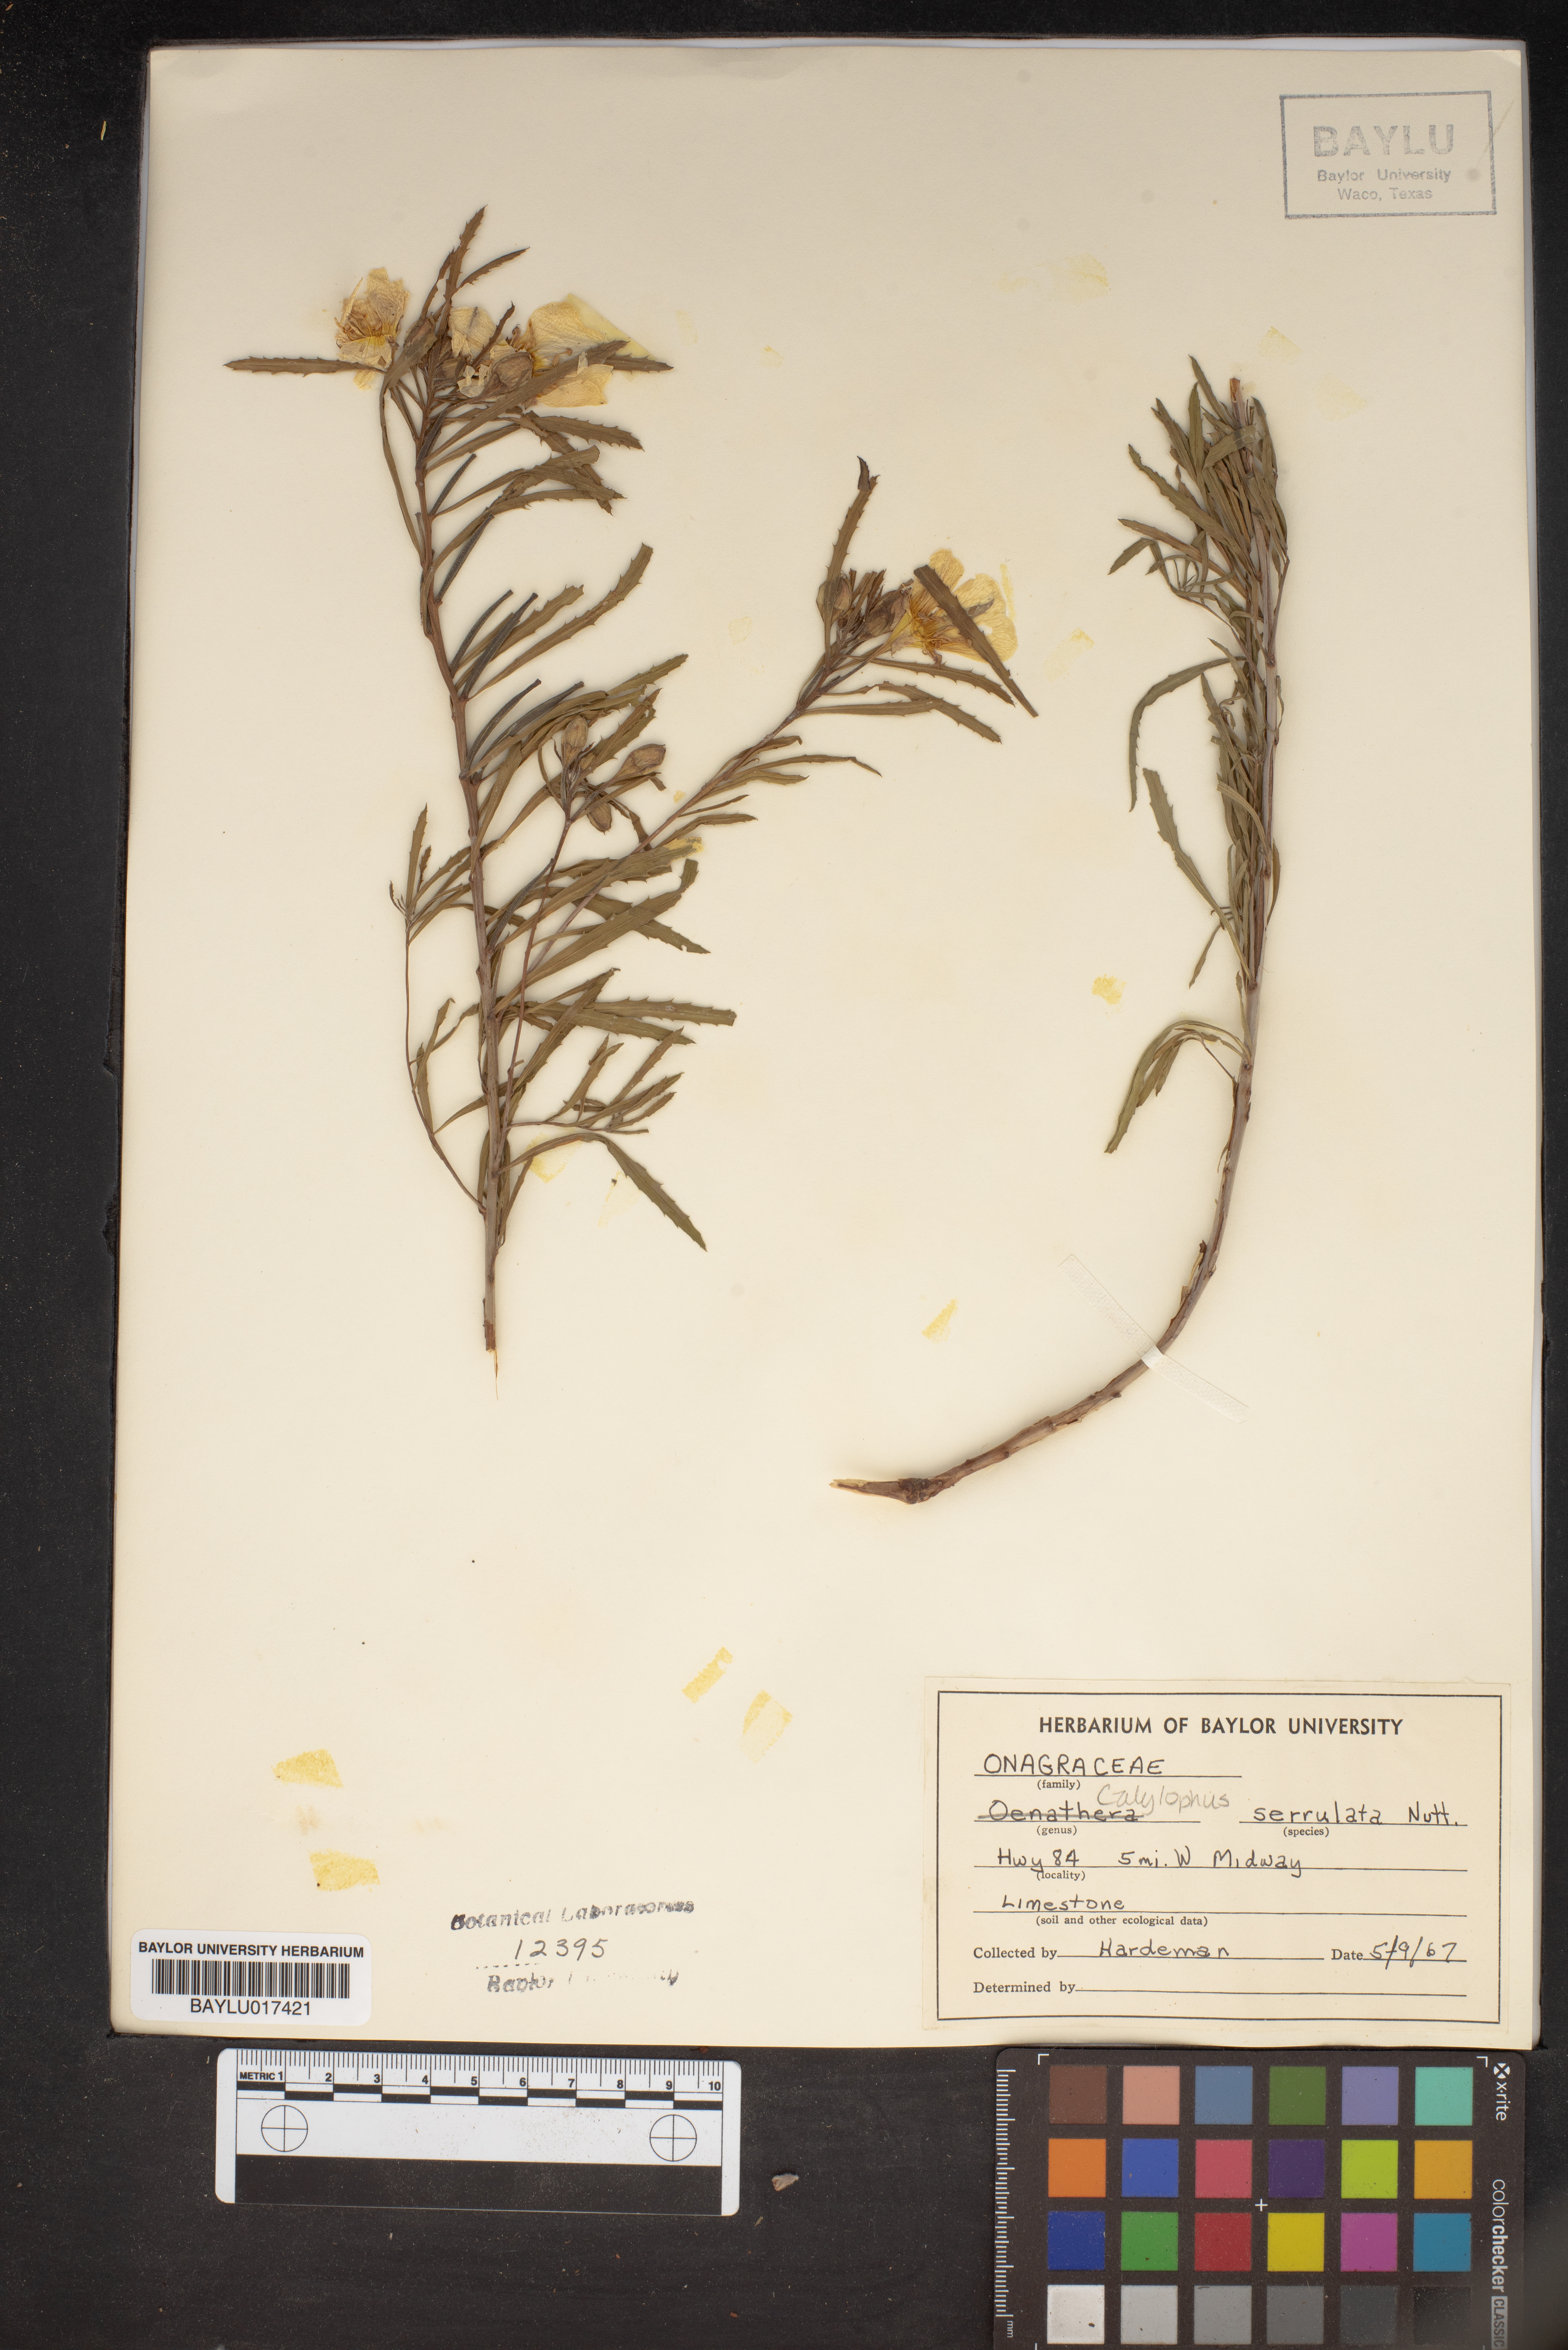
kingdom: Plantae
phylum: Tracheophyta
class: Magnoliopsida
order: Myrtales
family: Onagraceae
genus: Oenothera
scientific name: Oenothera serrulata
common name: Half-shrub calylophus
